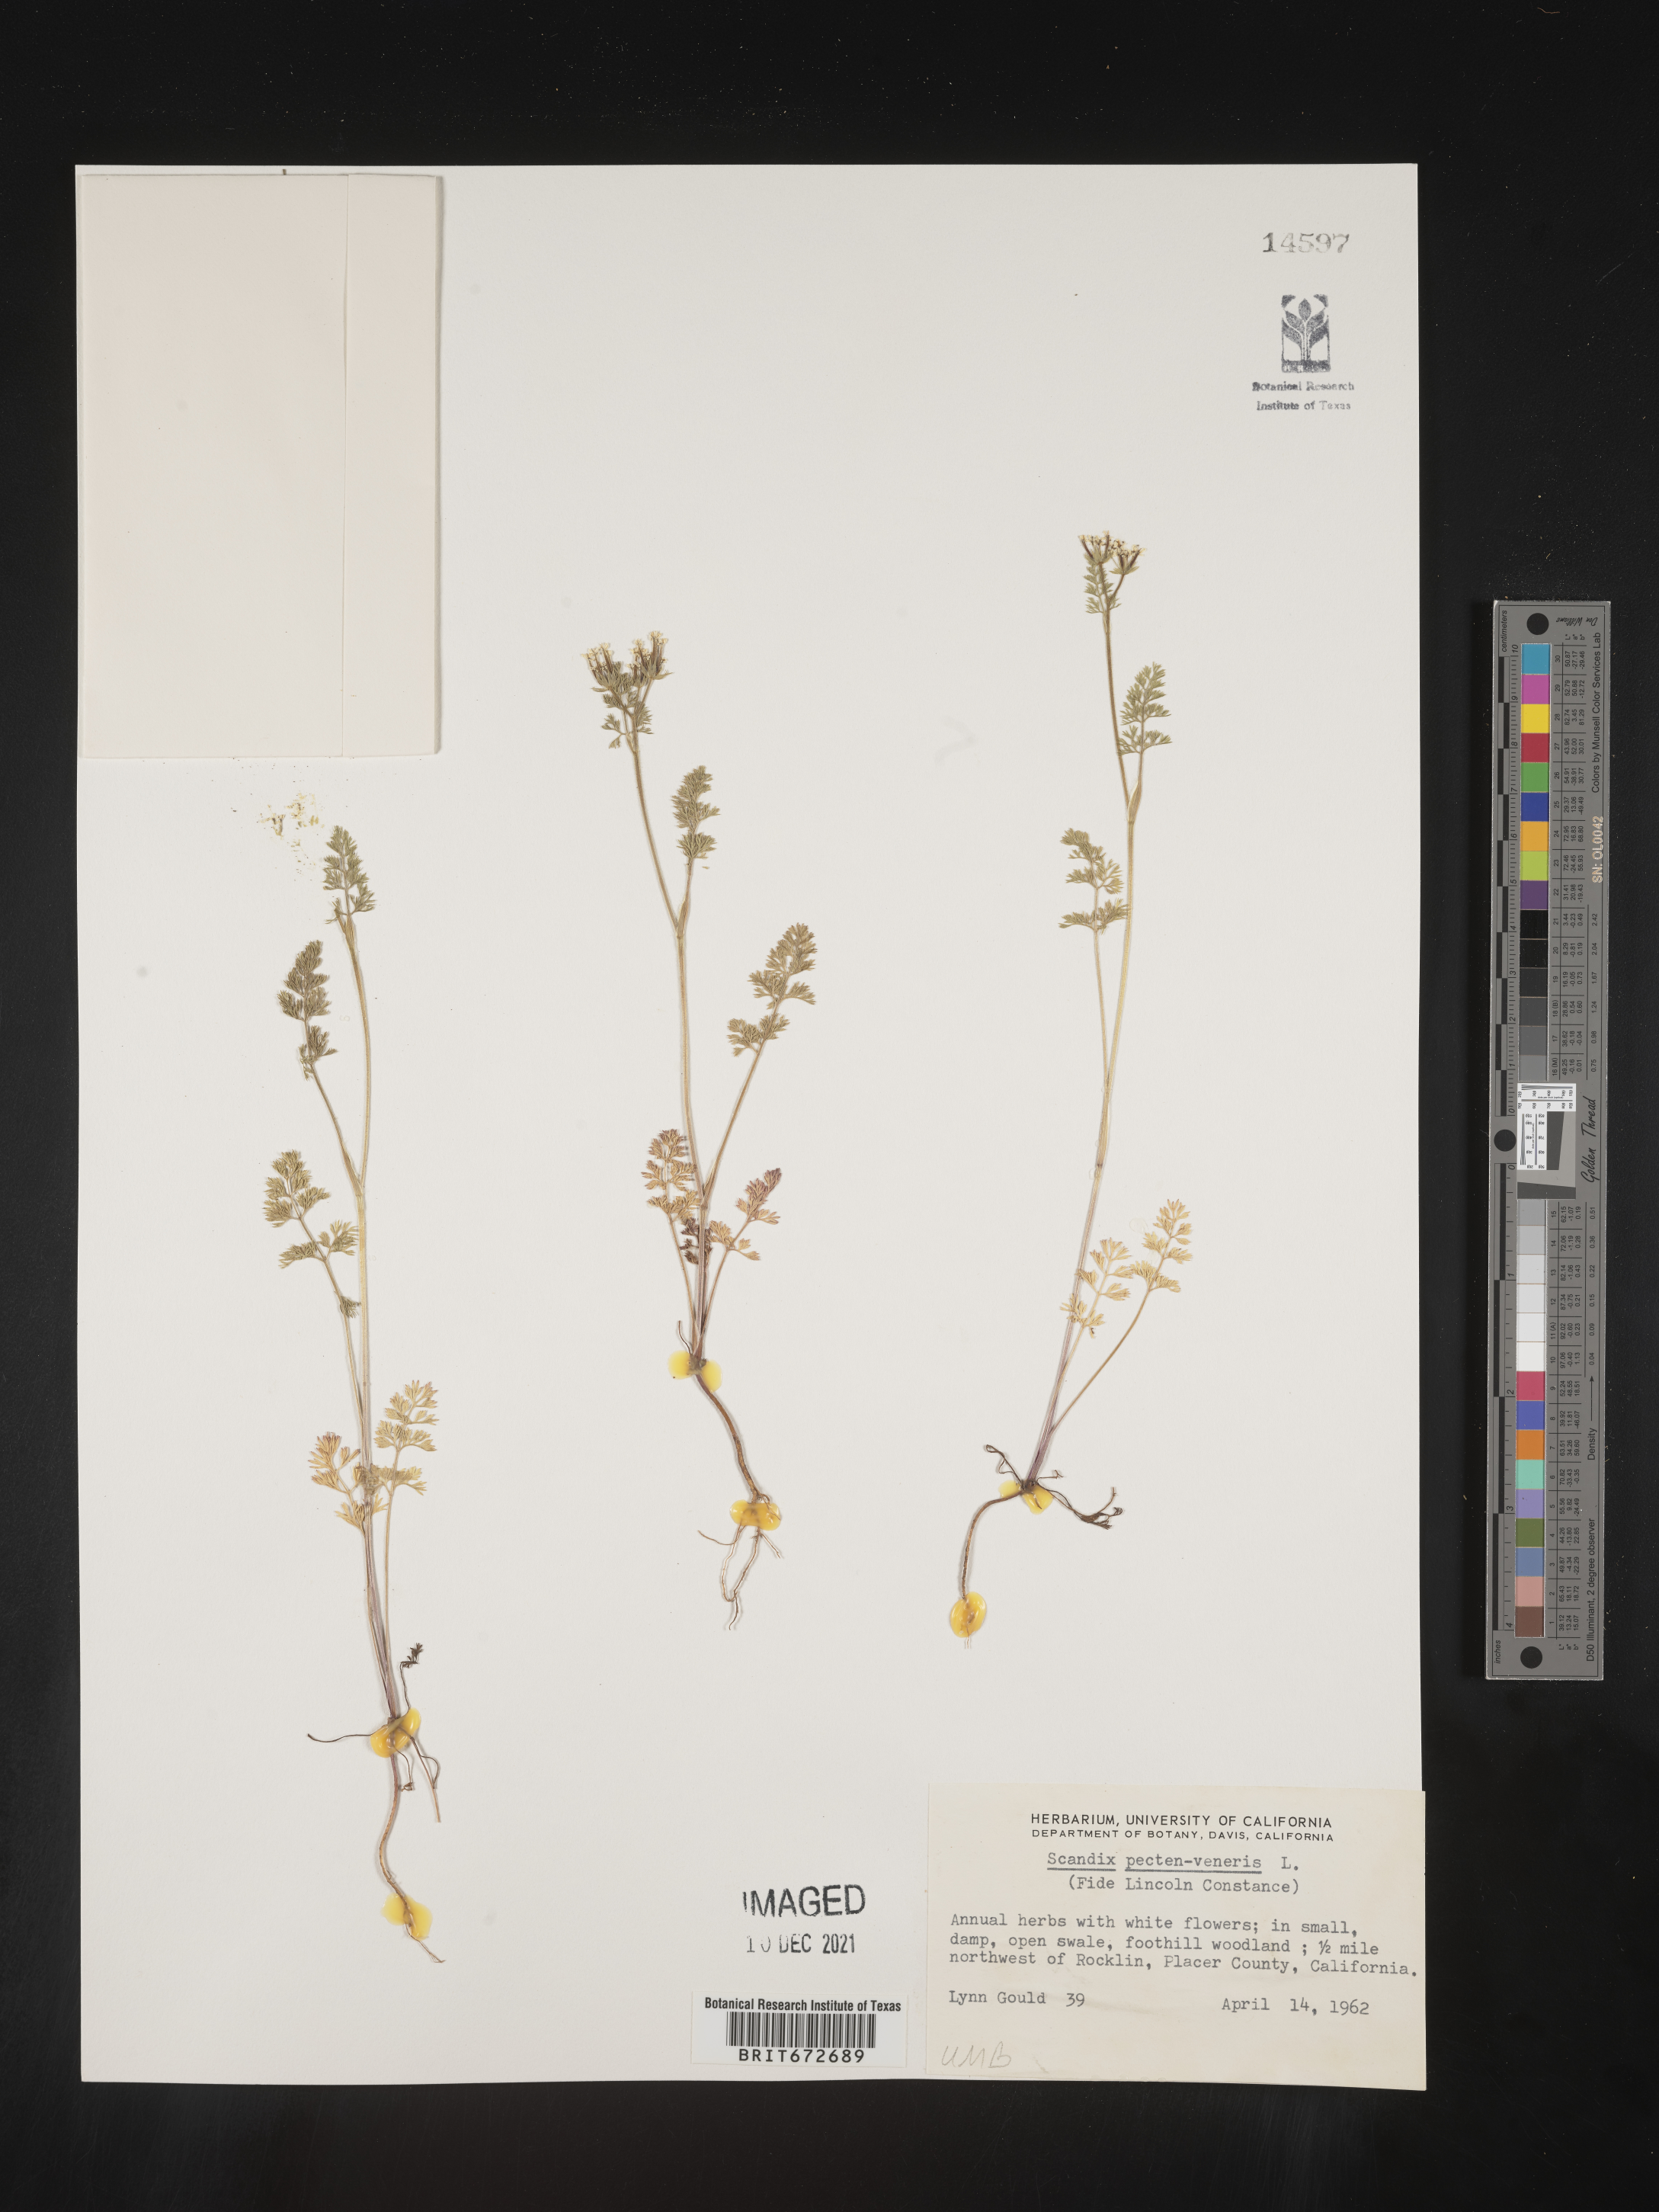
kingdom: Plantae
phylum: Tracheophyta
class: Magnoliopsida
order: Apiales
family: Apiaceae
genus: Scandix
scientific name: Scandix
